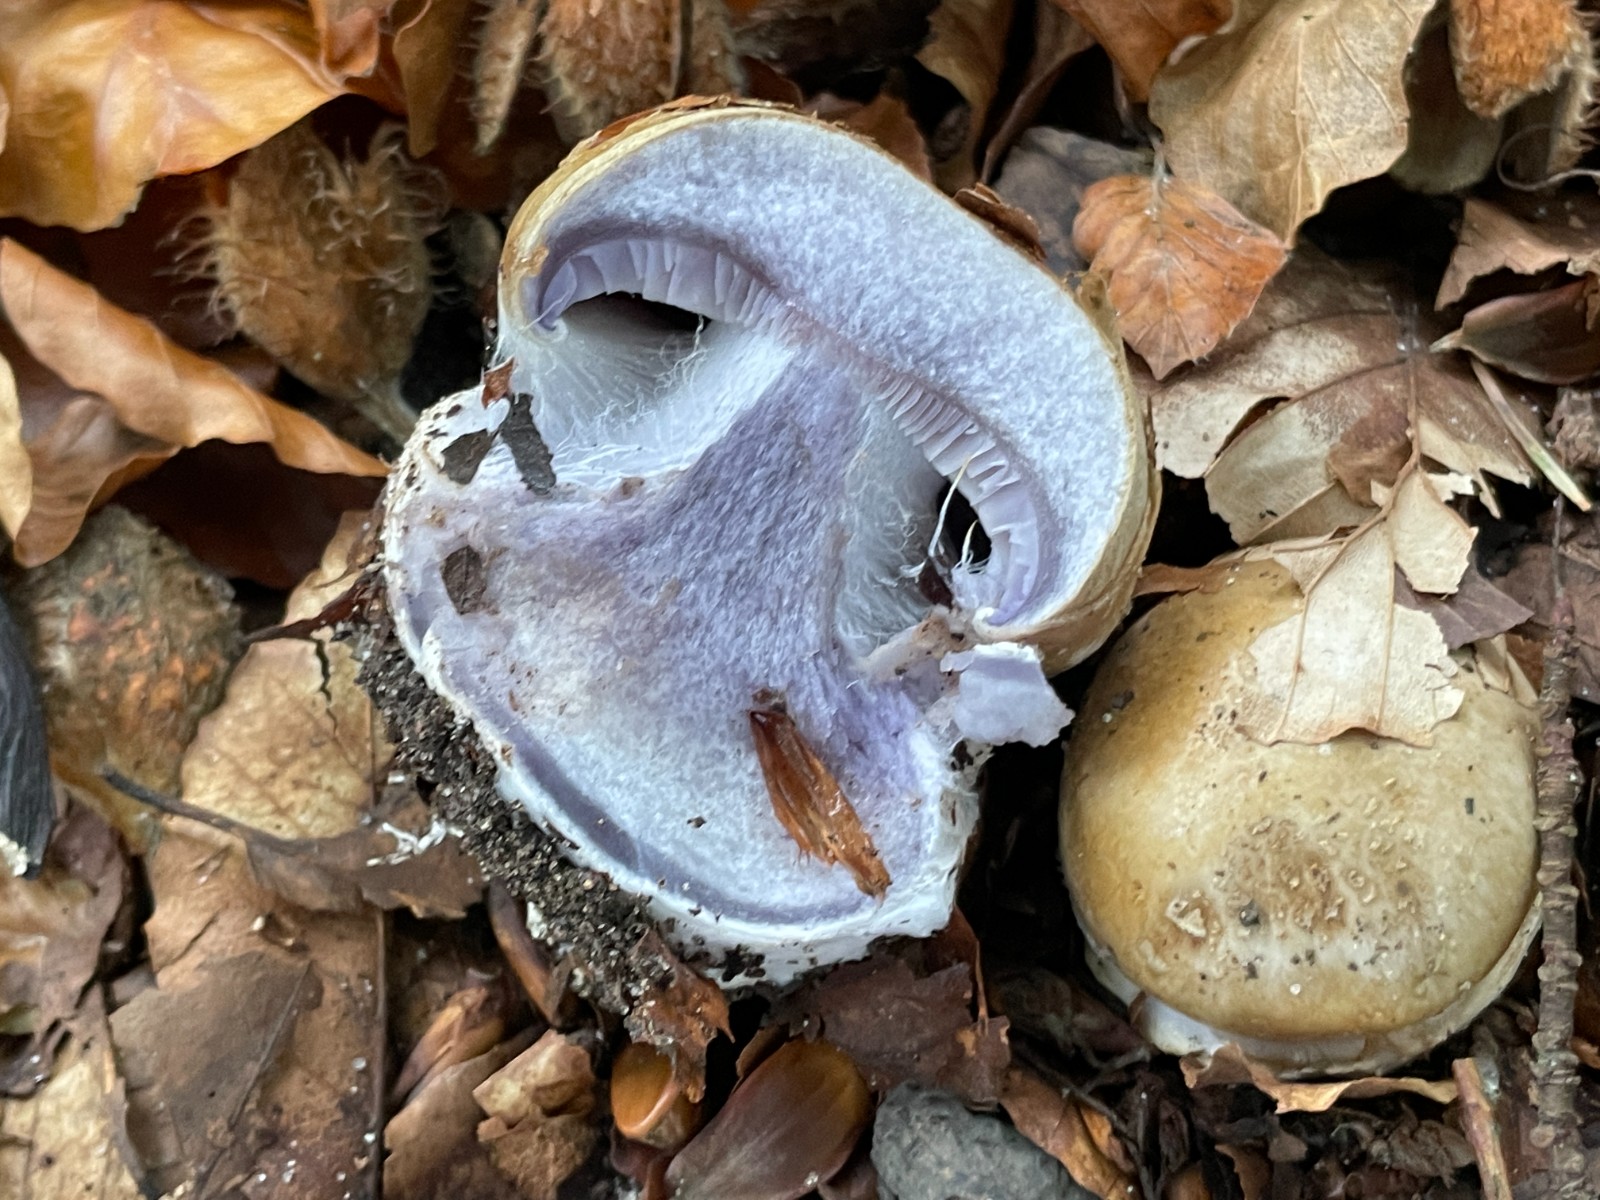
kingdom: Fungi
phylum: Basidiomycota
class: Agaricomycetes
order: Agaricales
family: Cortinariaceae
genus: Cortinarius
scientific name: Cortinarius anserinus
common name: bøge-slørhat
